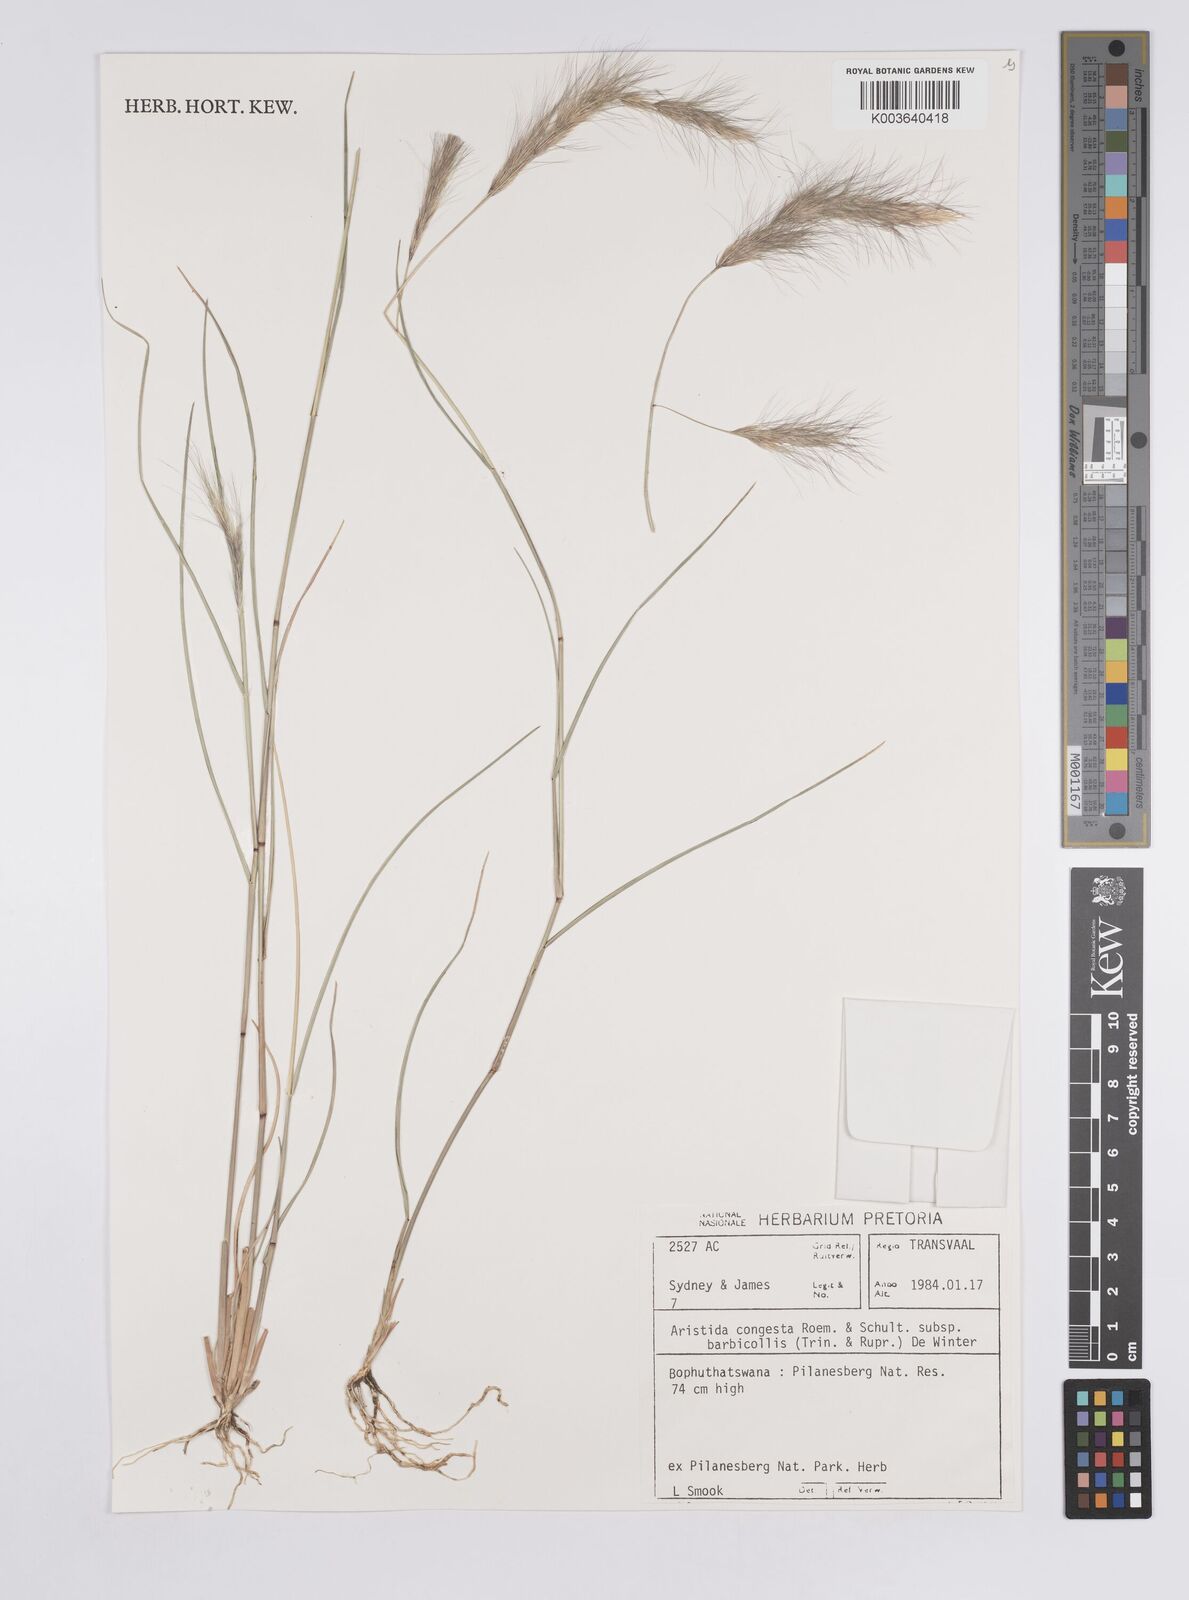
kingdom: Plantae
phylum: Tracheophyta
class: Liliopsida
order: Poales
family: Poaceae
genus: Aristida
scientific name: Aristida barbicollis
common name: Spreading prickle grass
